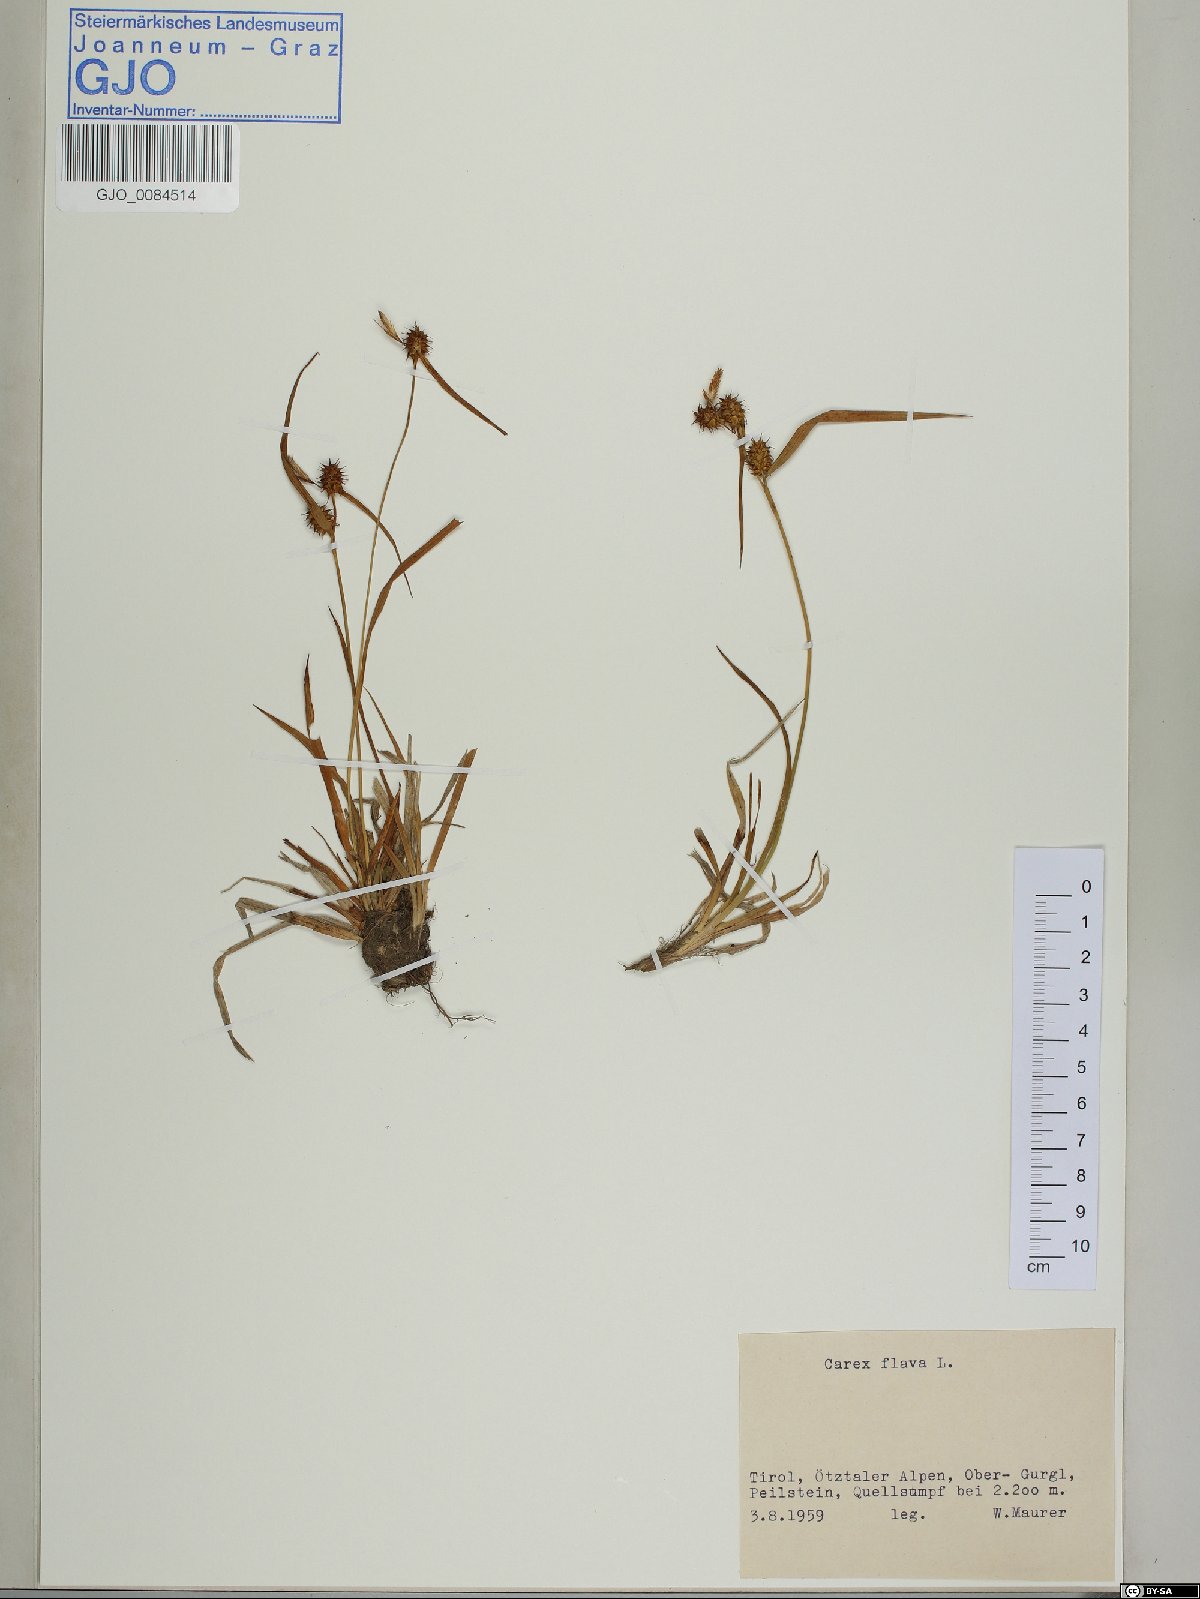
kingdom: Plantae
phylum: Tracheophyta
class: Liliopsida
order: Poales
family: Cyperaceae
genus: Carex
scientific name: Carex flava
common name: Large yellow-sedge
